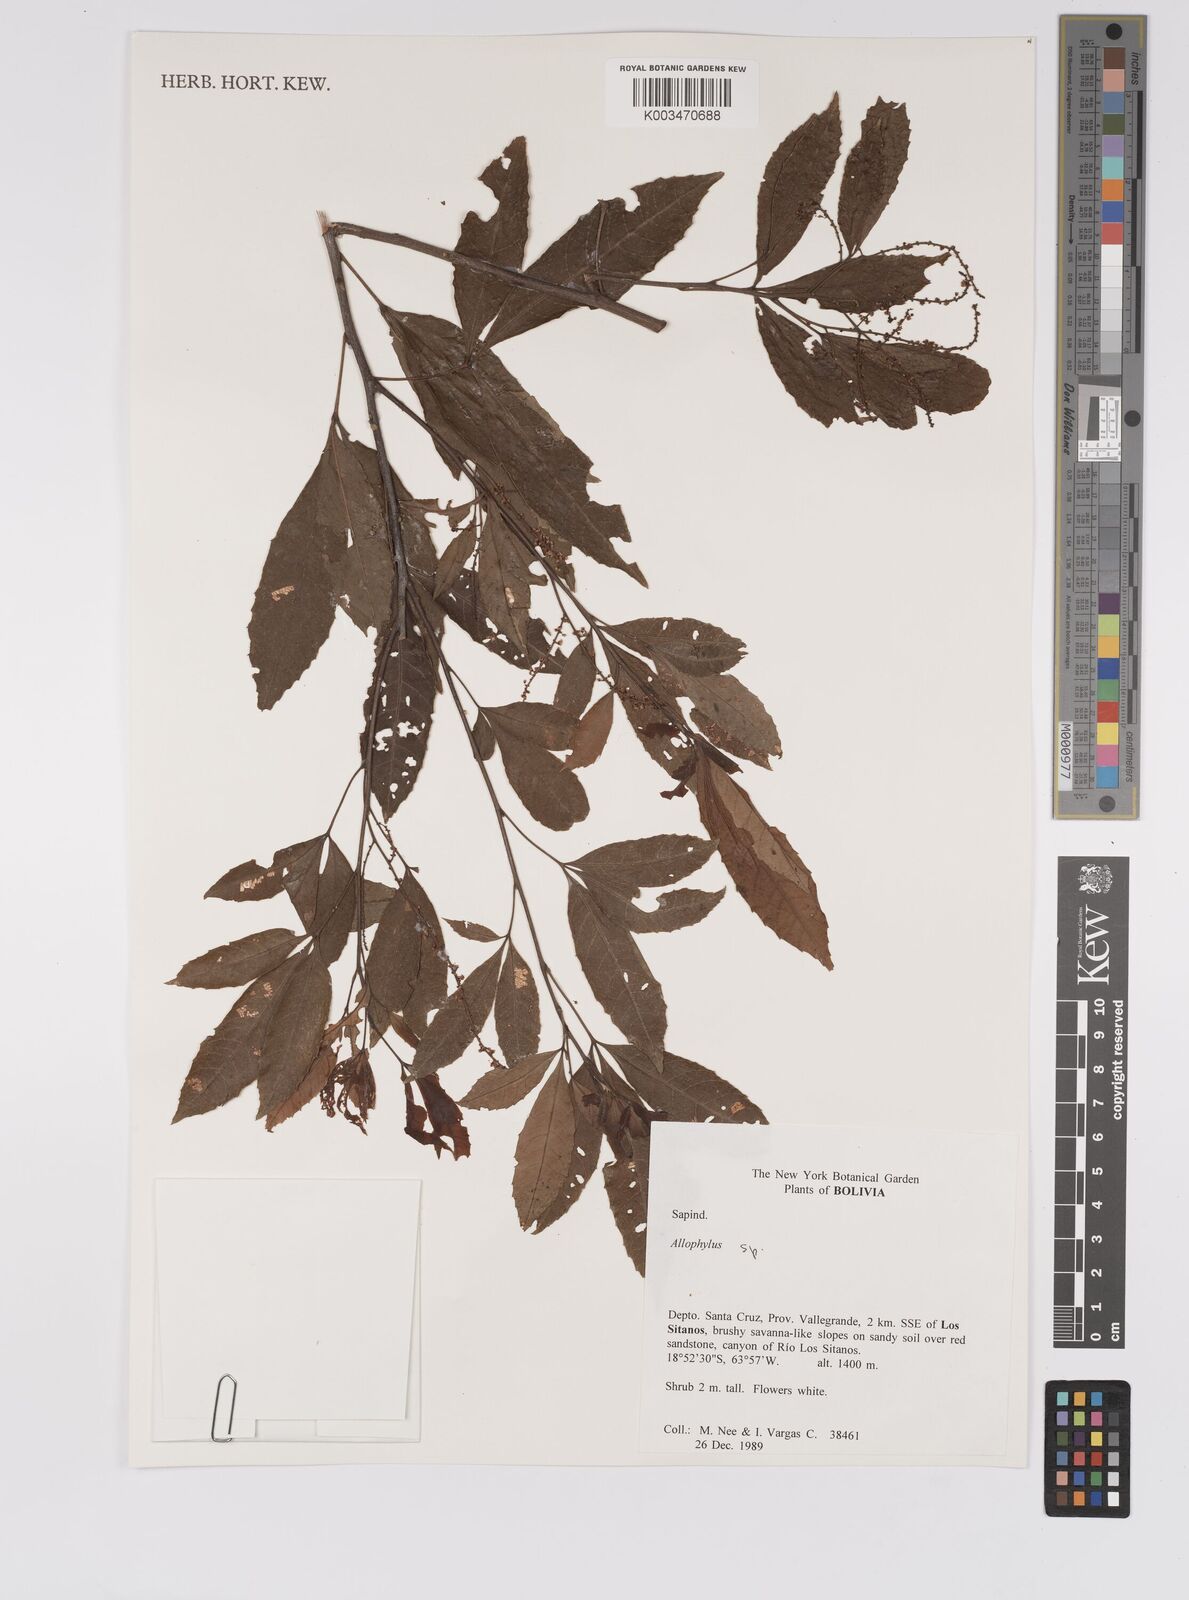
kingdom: Plantae
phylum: Tracheophyta
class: Magnoliopsida
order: Sapindales
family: Sapindaceae
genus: Allophylus
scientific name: Allophylus
